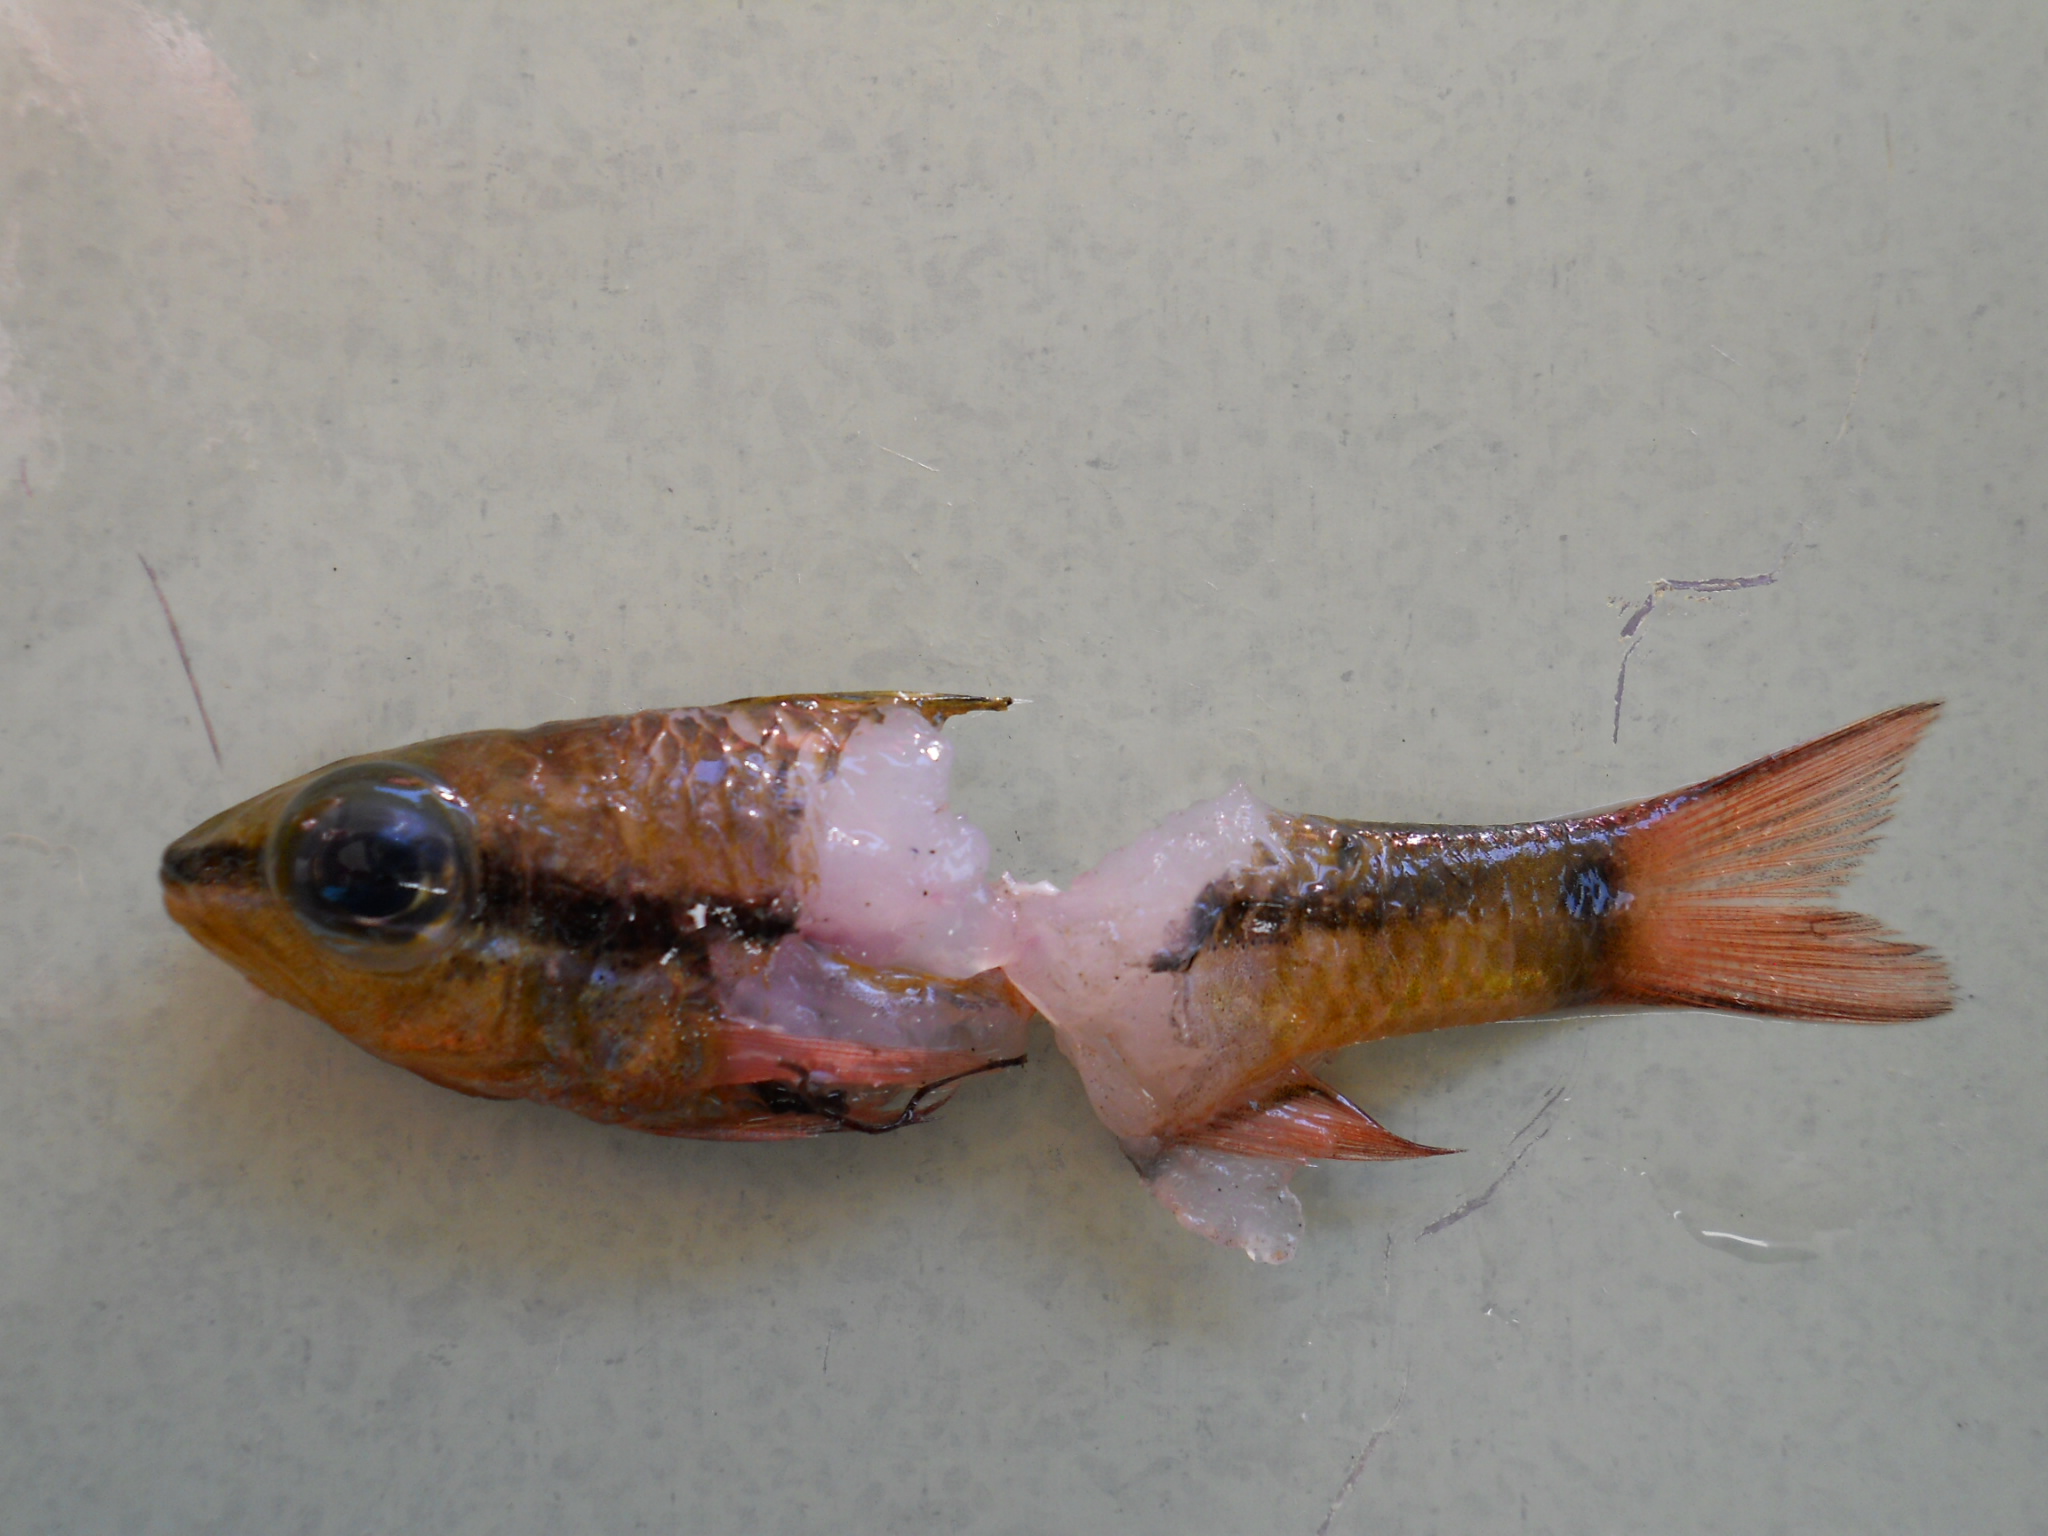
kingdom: Animalia
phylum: Chordata
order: Perciformes
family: Apogonidae
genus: Pristiapogon
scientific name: Pristiapogon kallopterus
